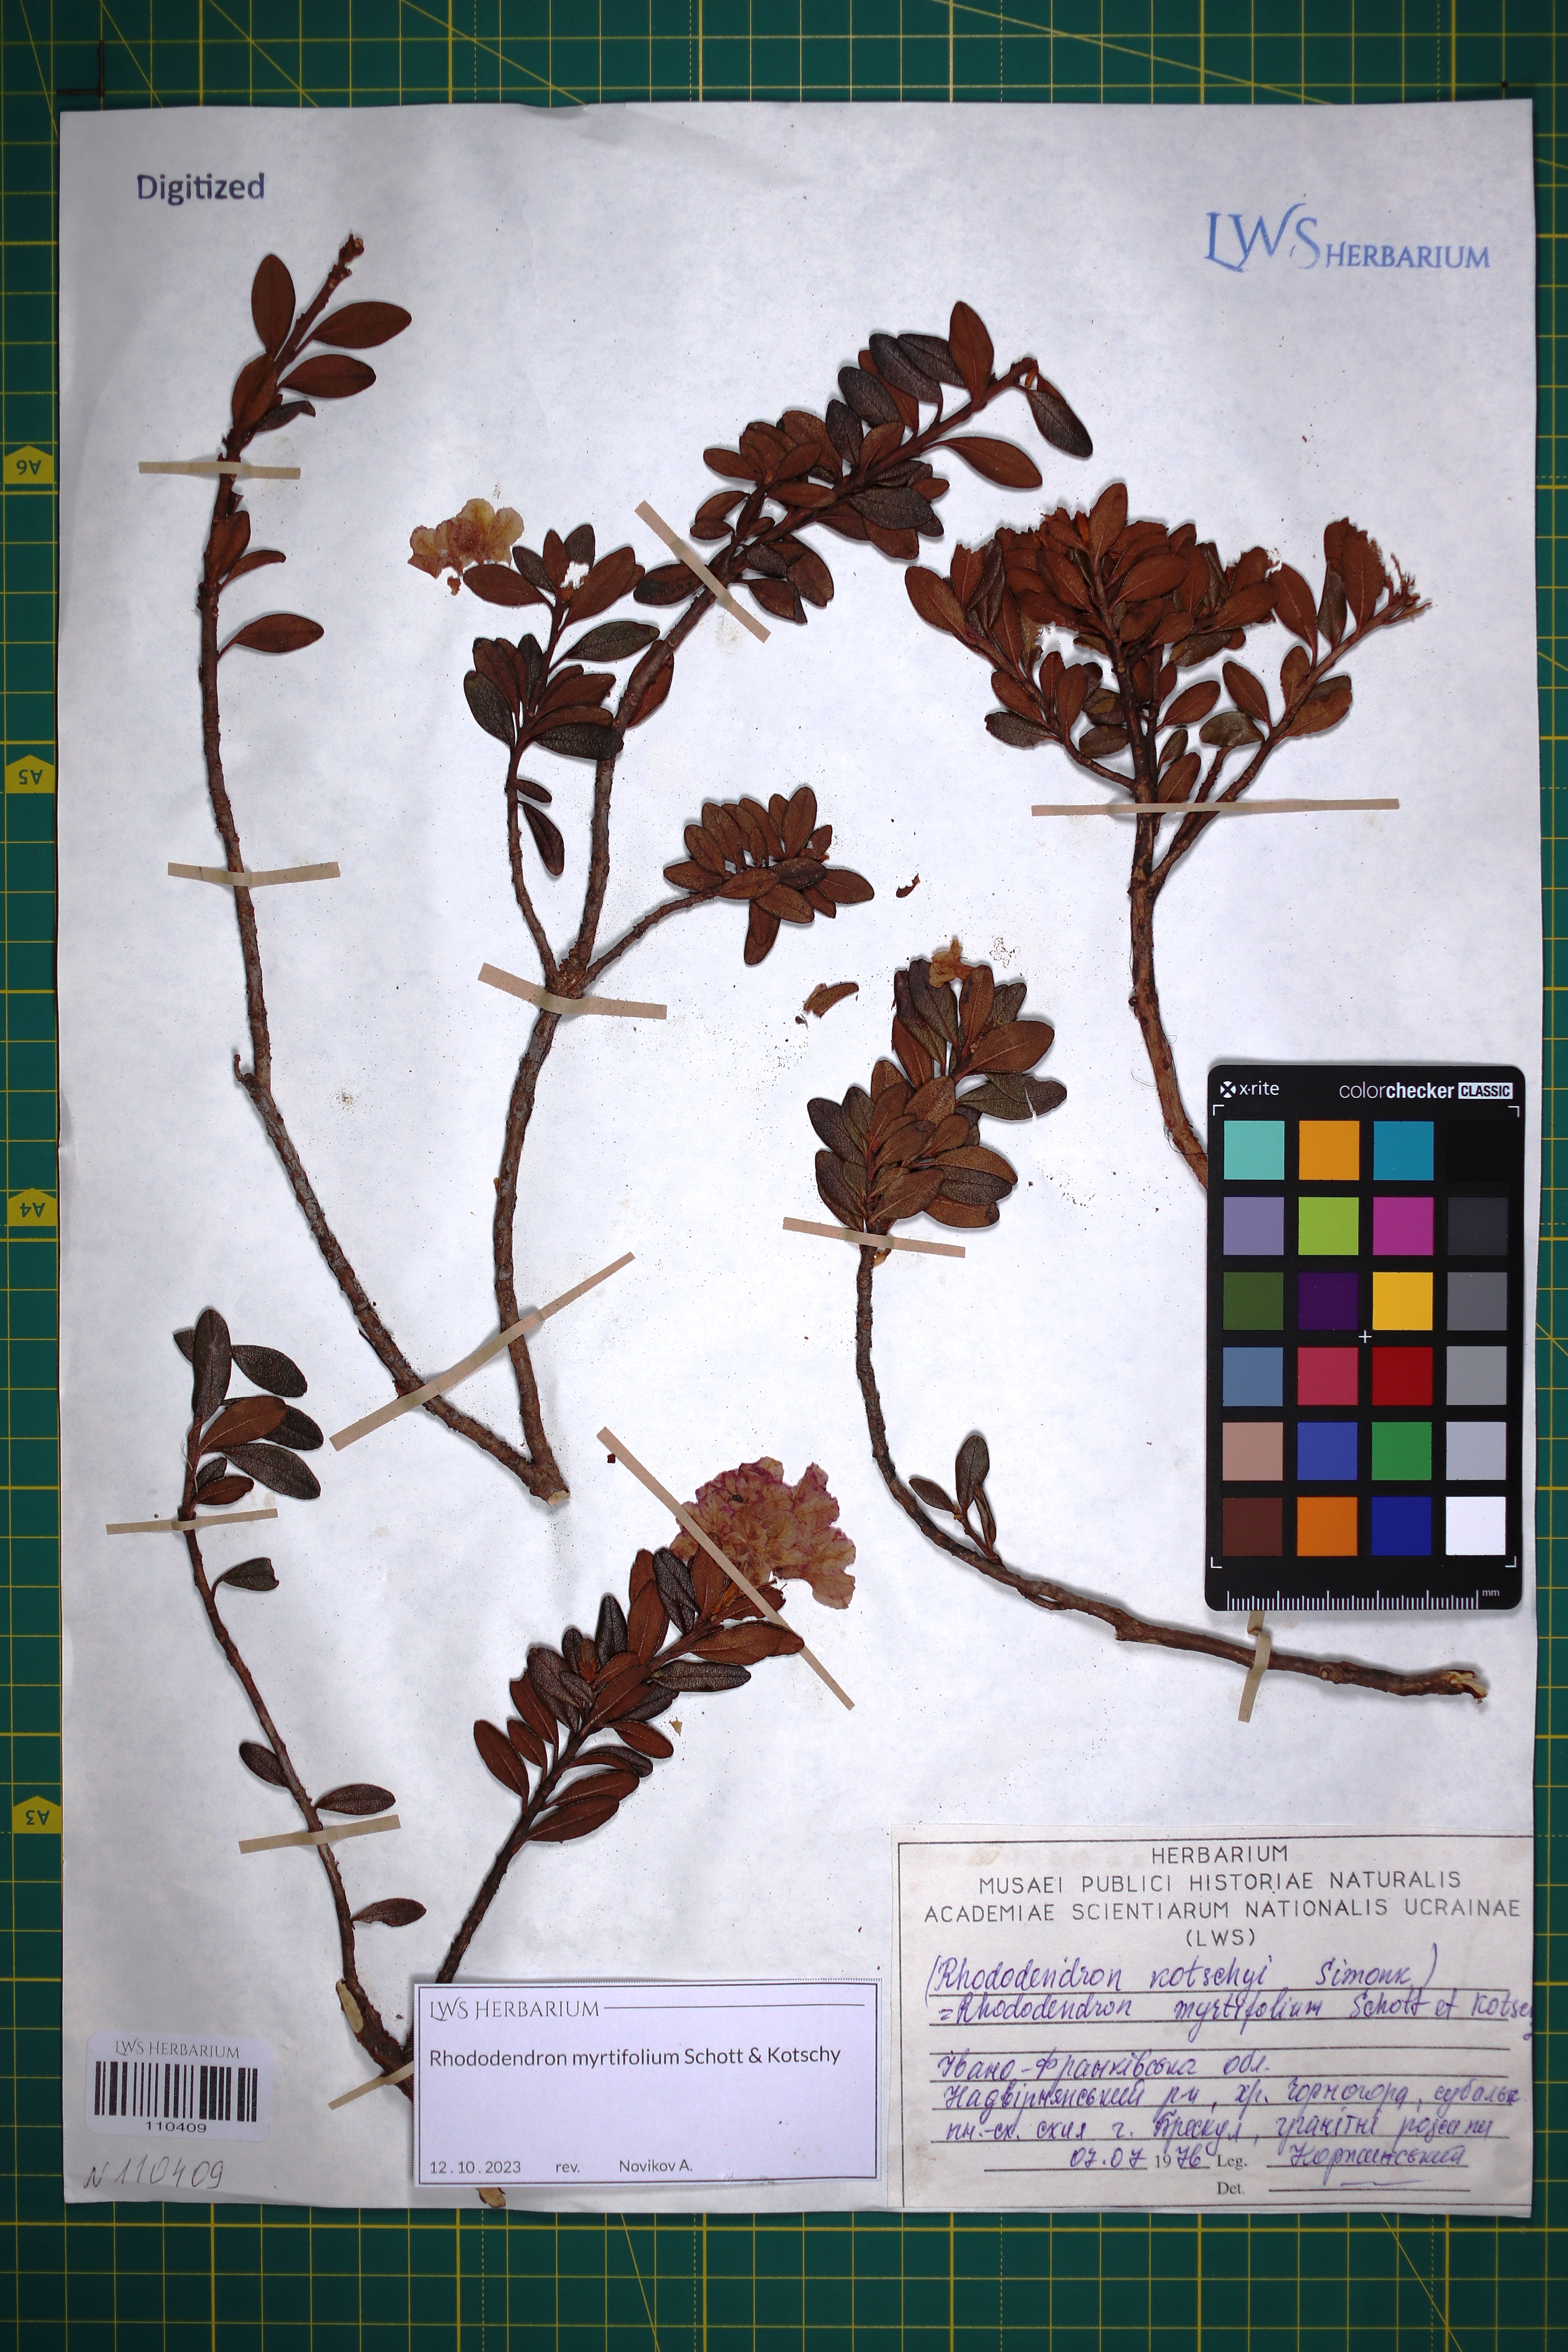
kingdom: Plantae
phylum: Tracheophyta
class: Magnoliopsida
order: Ericales
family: Ericaceae
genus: Rhododendron
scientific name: Rhododendron kotschyi
